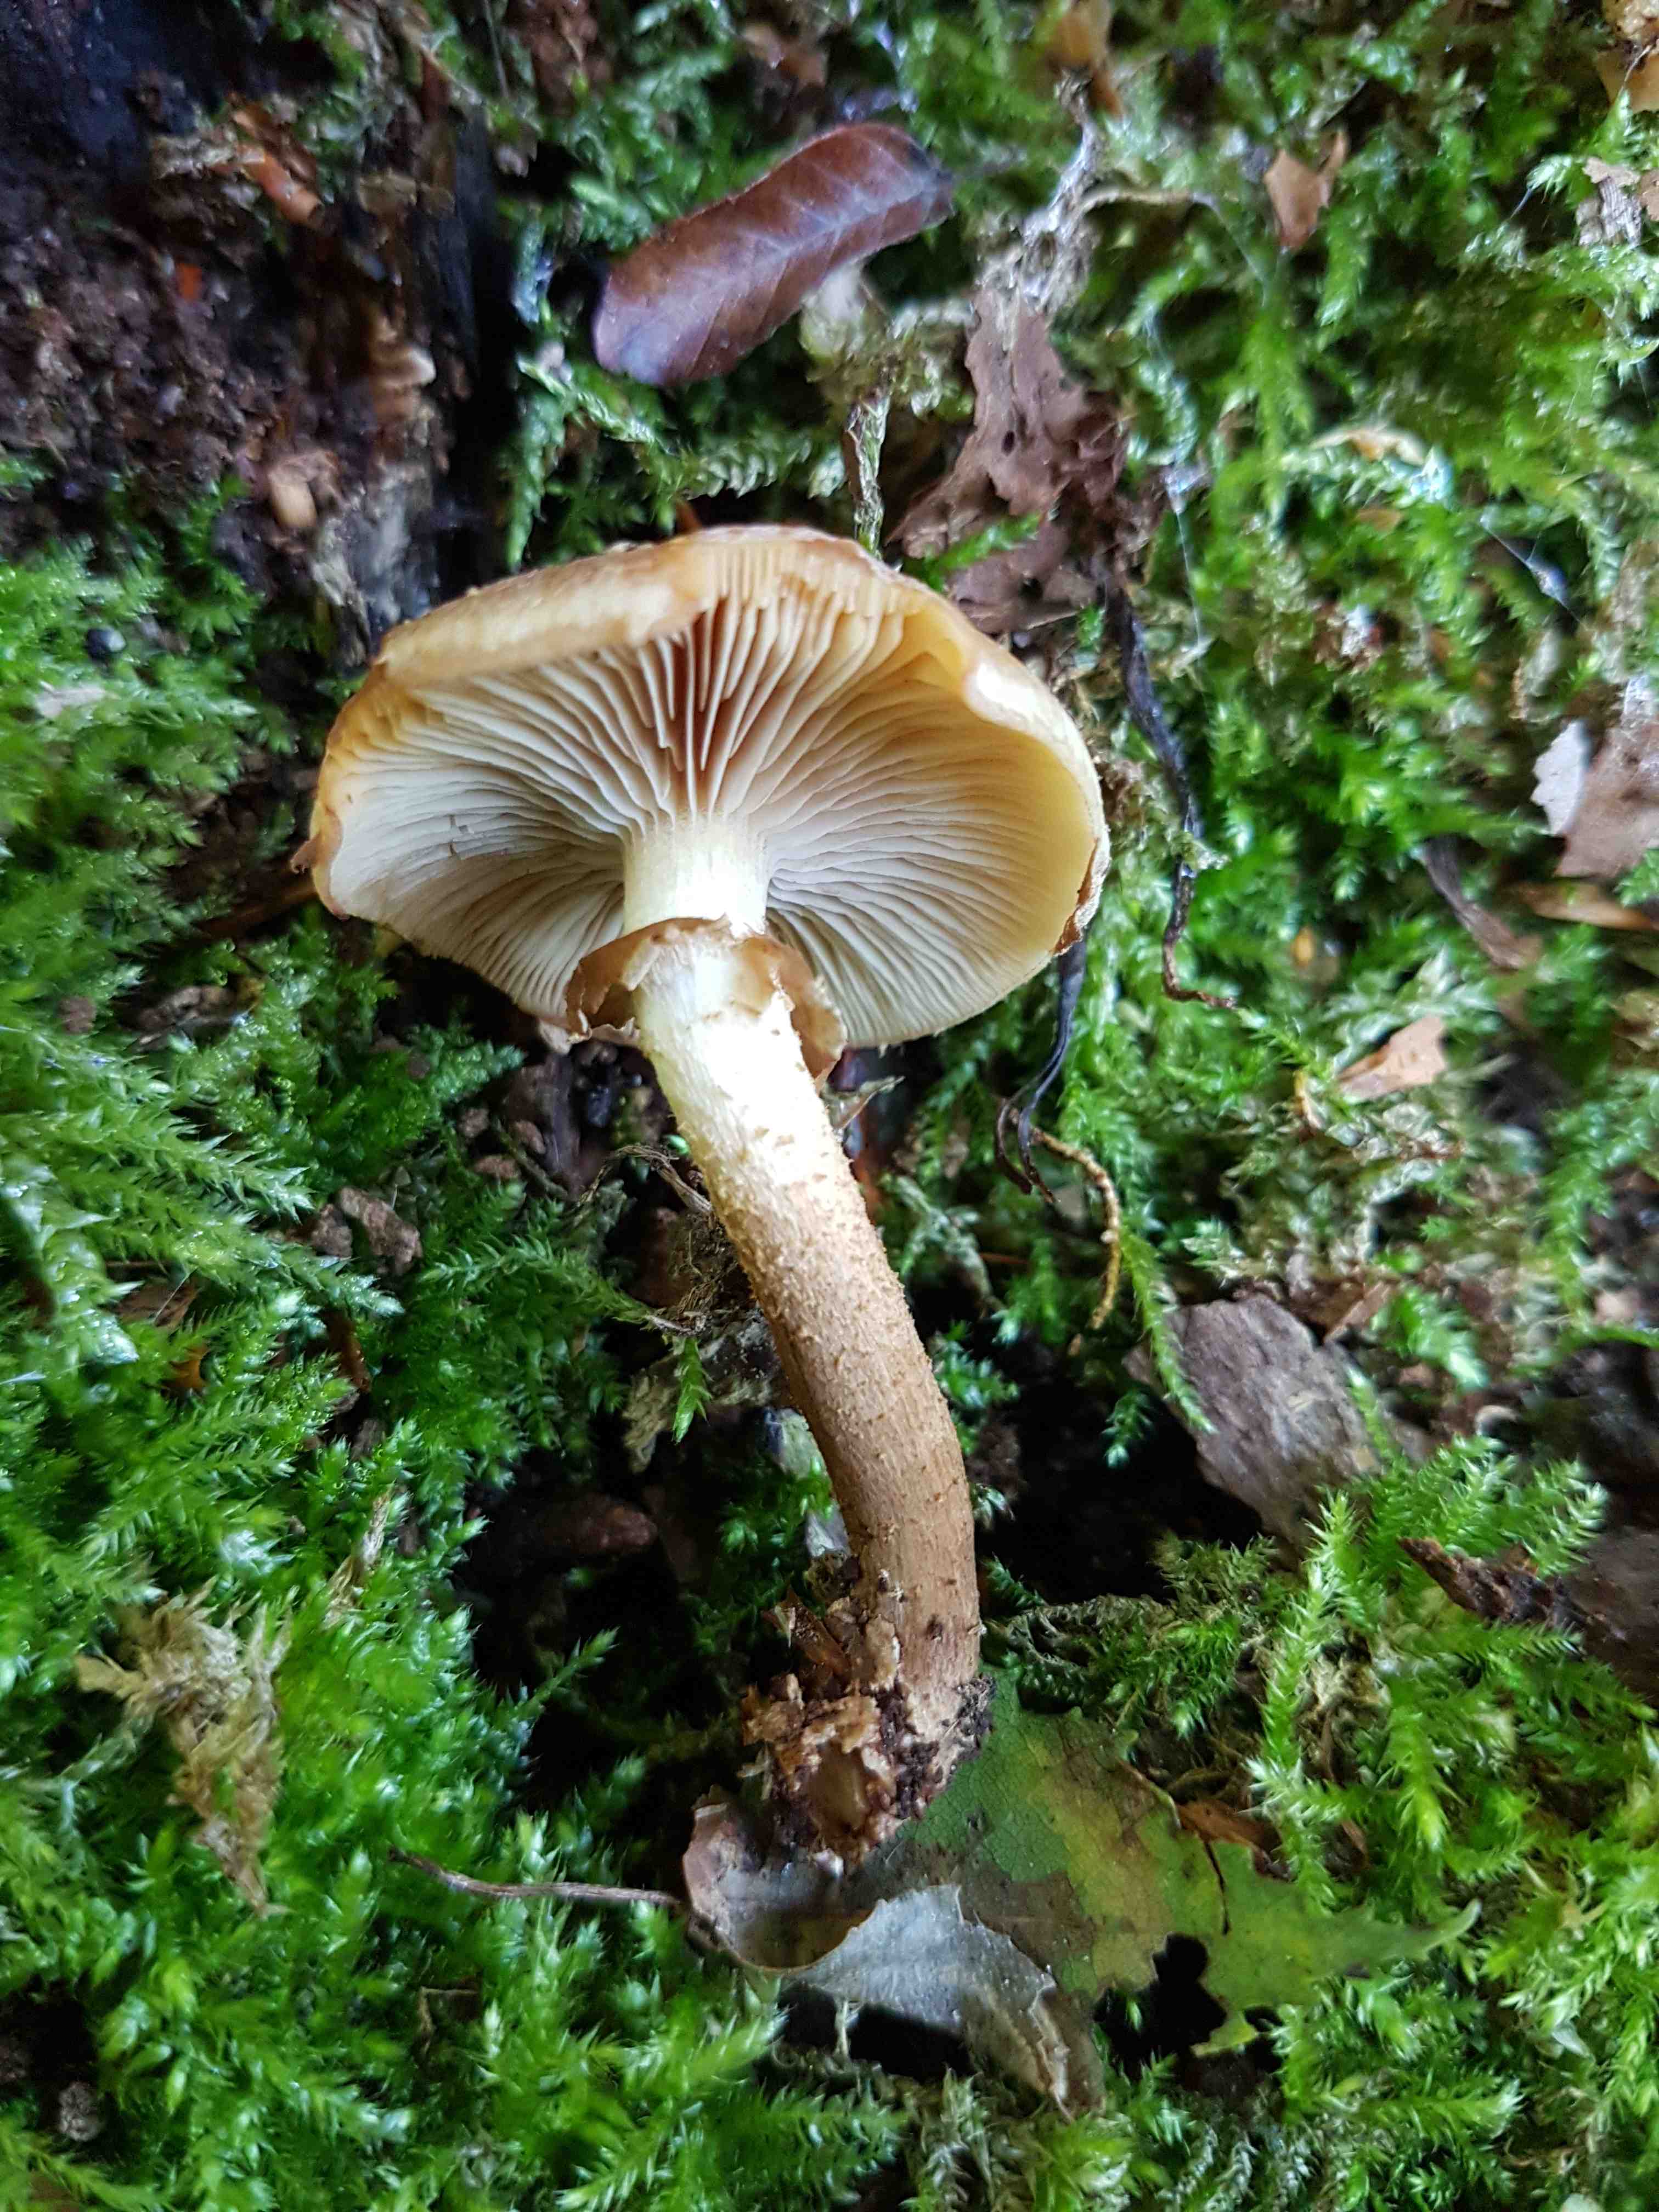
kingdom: Fungi
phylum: Basidiomycota
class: Agaricomycetes
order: Agaricales
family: Strophariaceae
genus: Kuehneromyces
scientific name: Kuehneromyces mutabilis
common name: foranderlig skælhat
